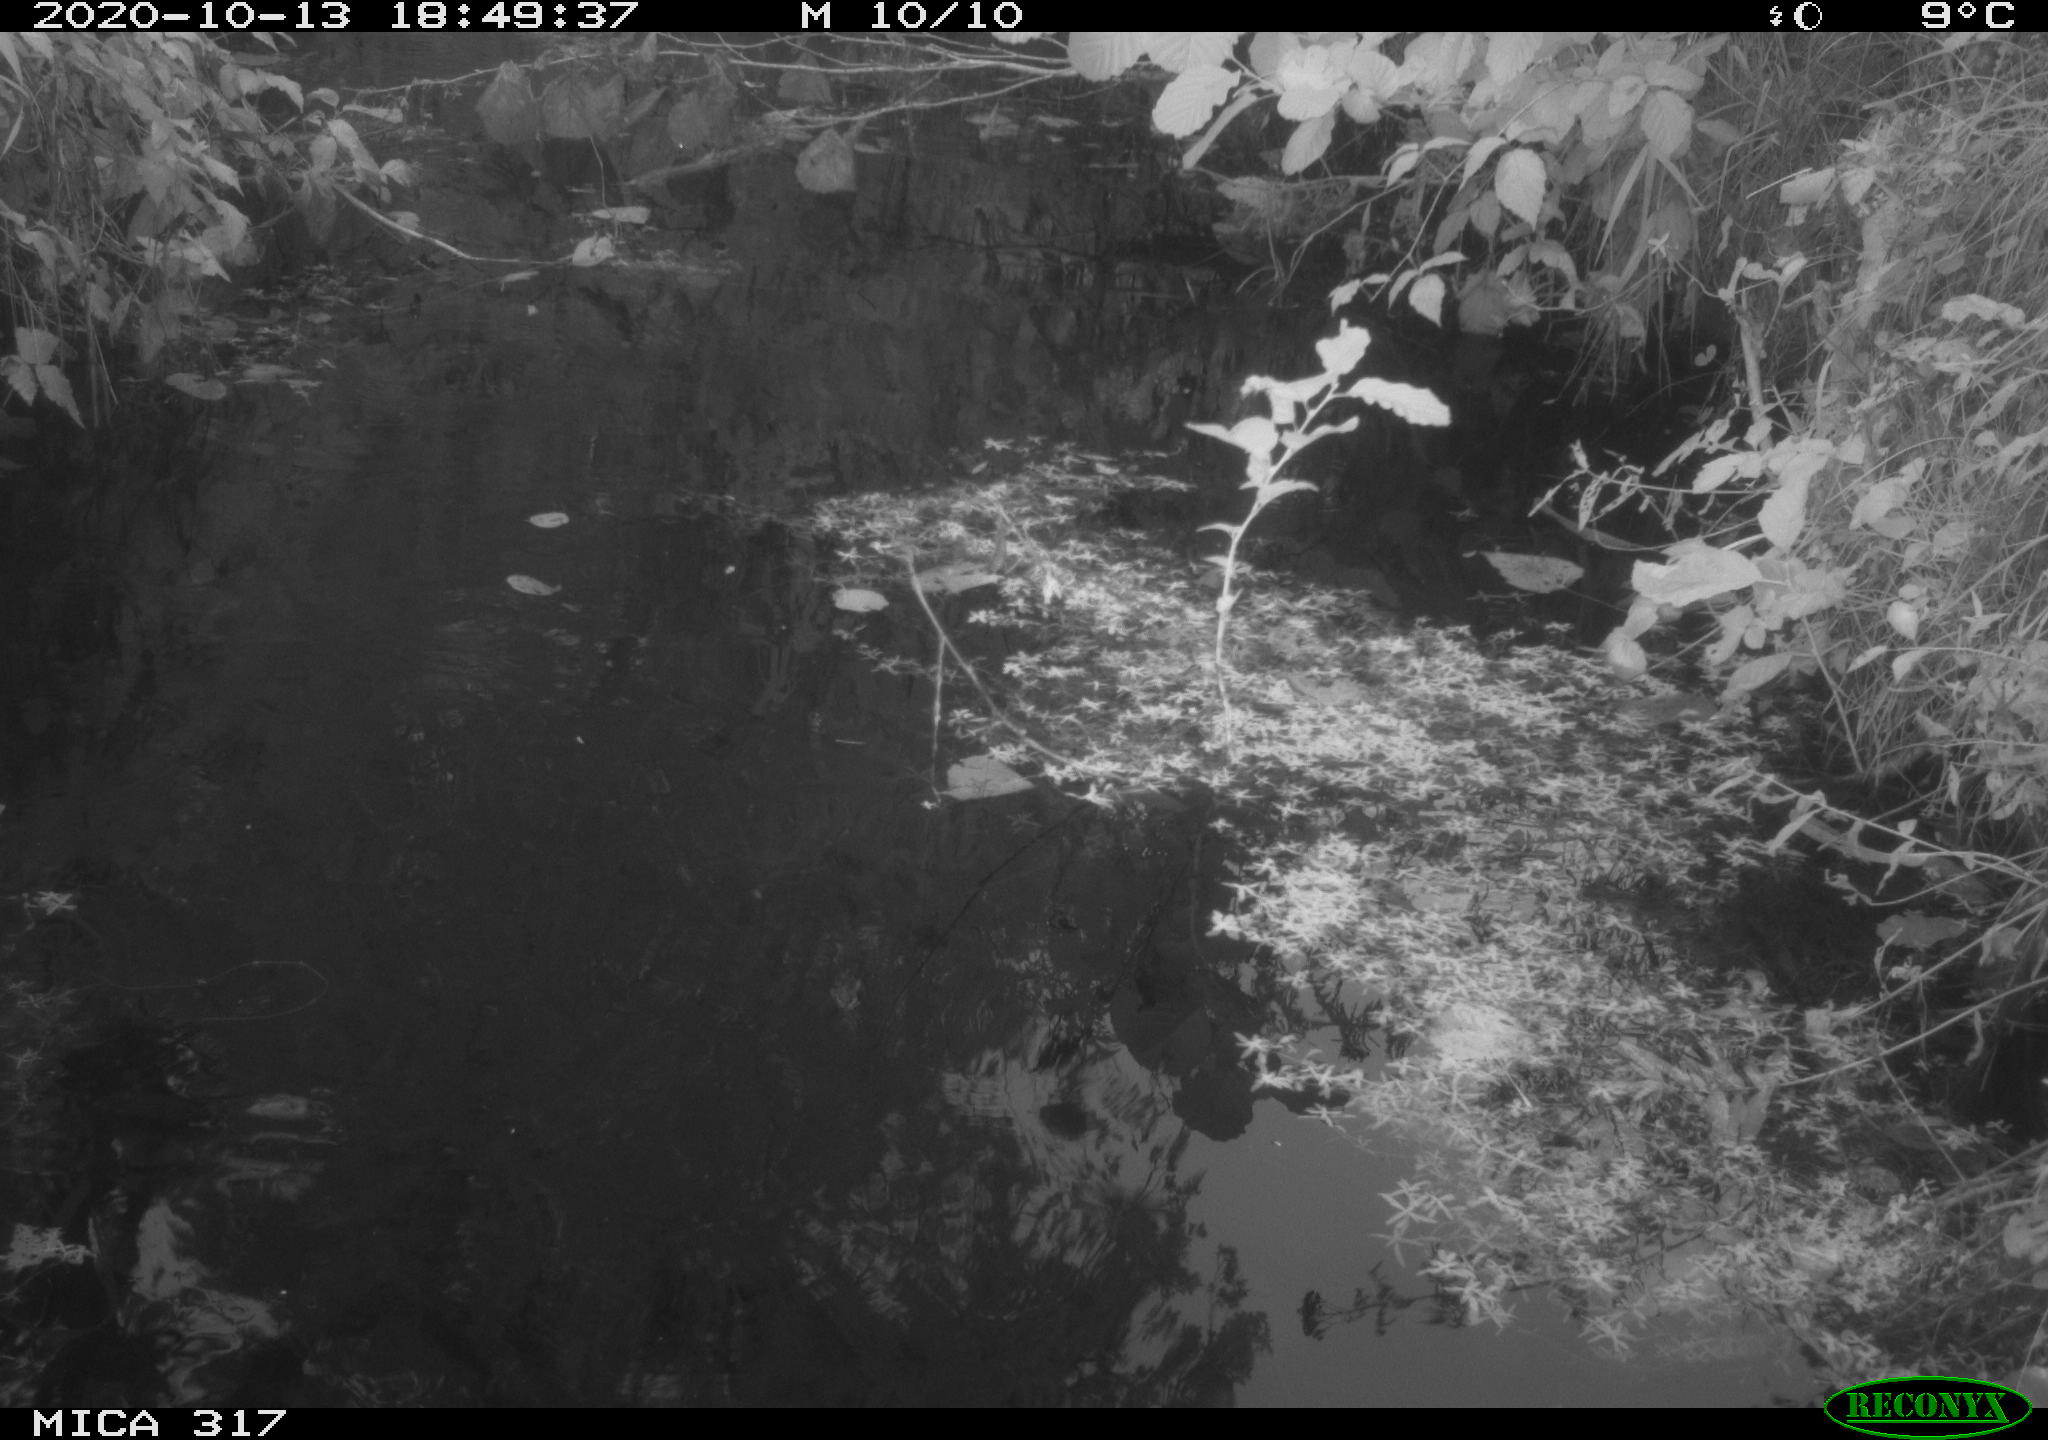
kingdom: Animalia
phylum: Chordata
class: Aves
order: Gruiformes
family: Rallidae
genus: Gallinula
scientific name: Gallinula chloropus
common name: Common moorhen
